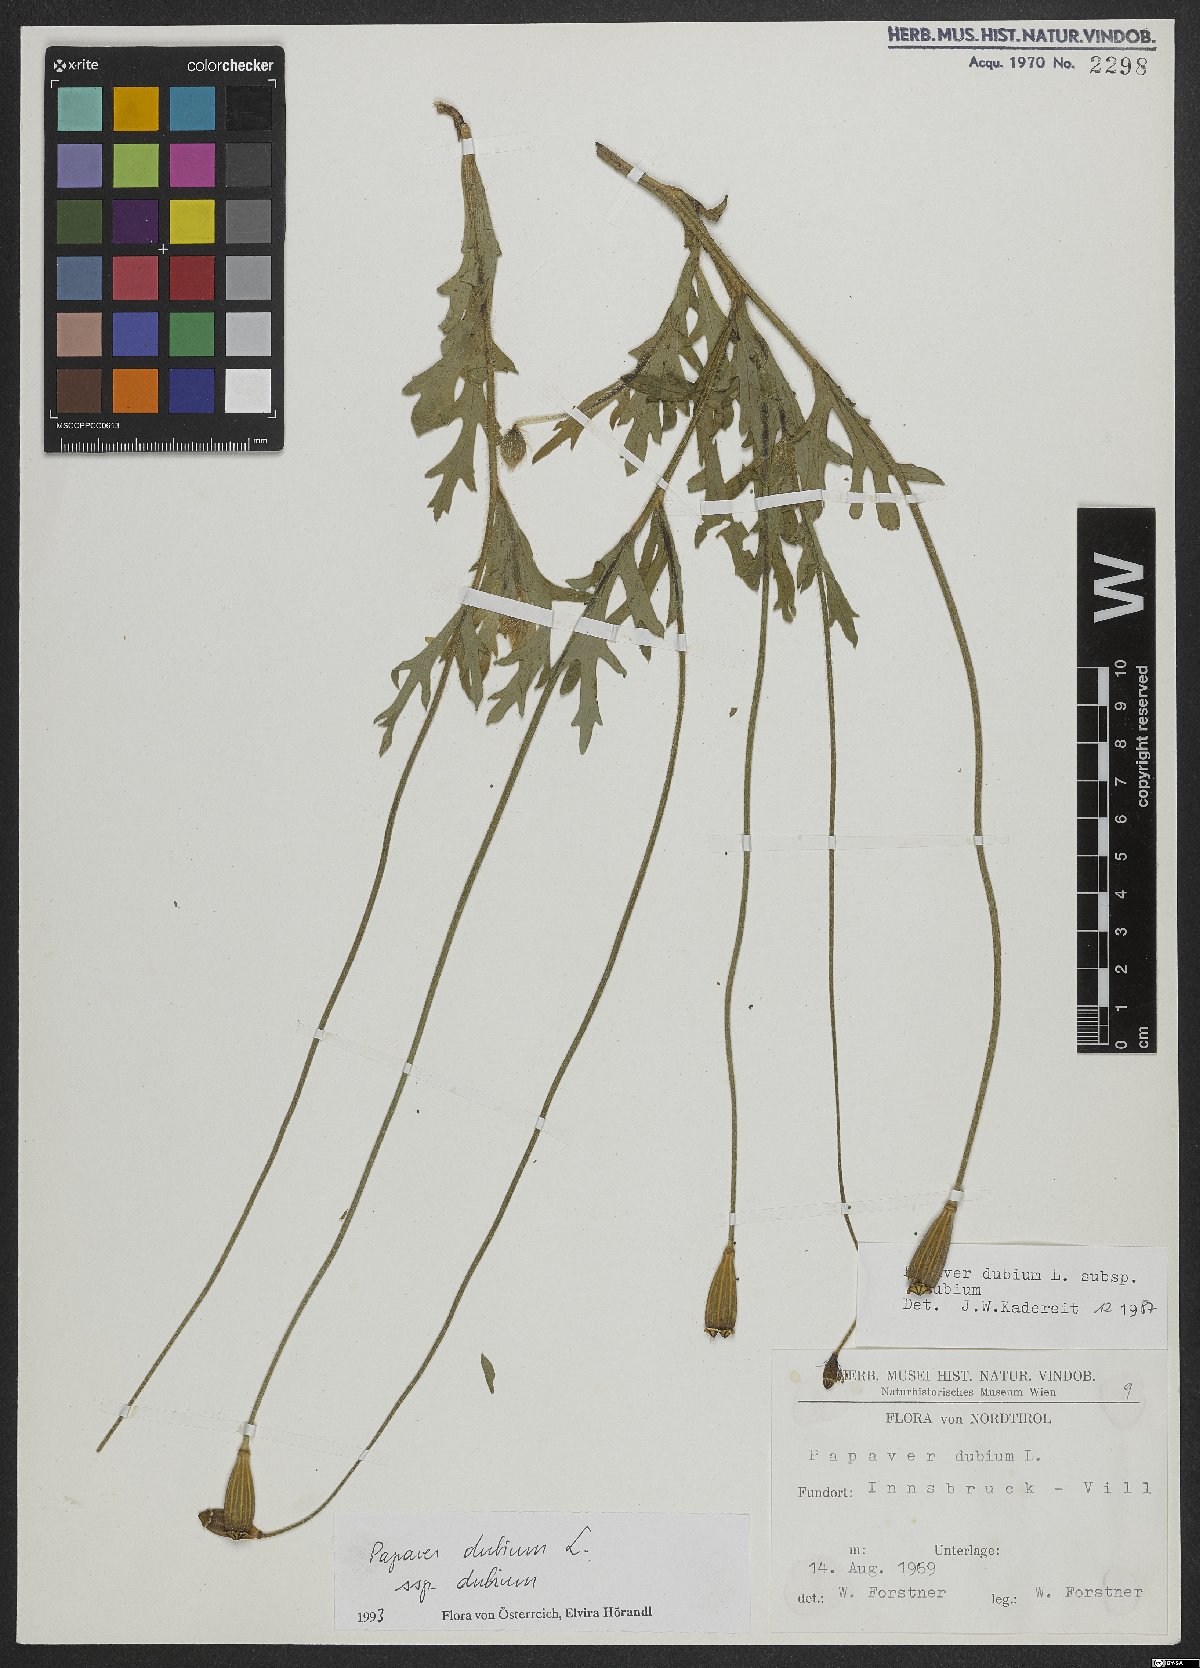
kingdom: Plantae
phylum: Tracheophyta
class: Magnoliopsida
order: Ranunculales
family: Papaveraceae
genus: Papaver
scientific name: Papaver dubium
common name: Long-headed poppy
